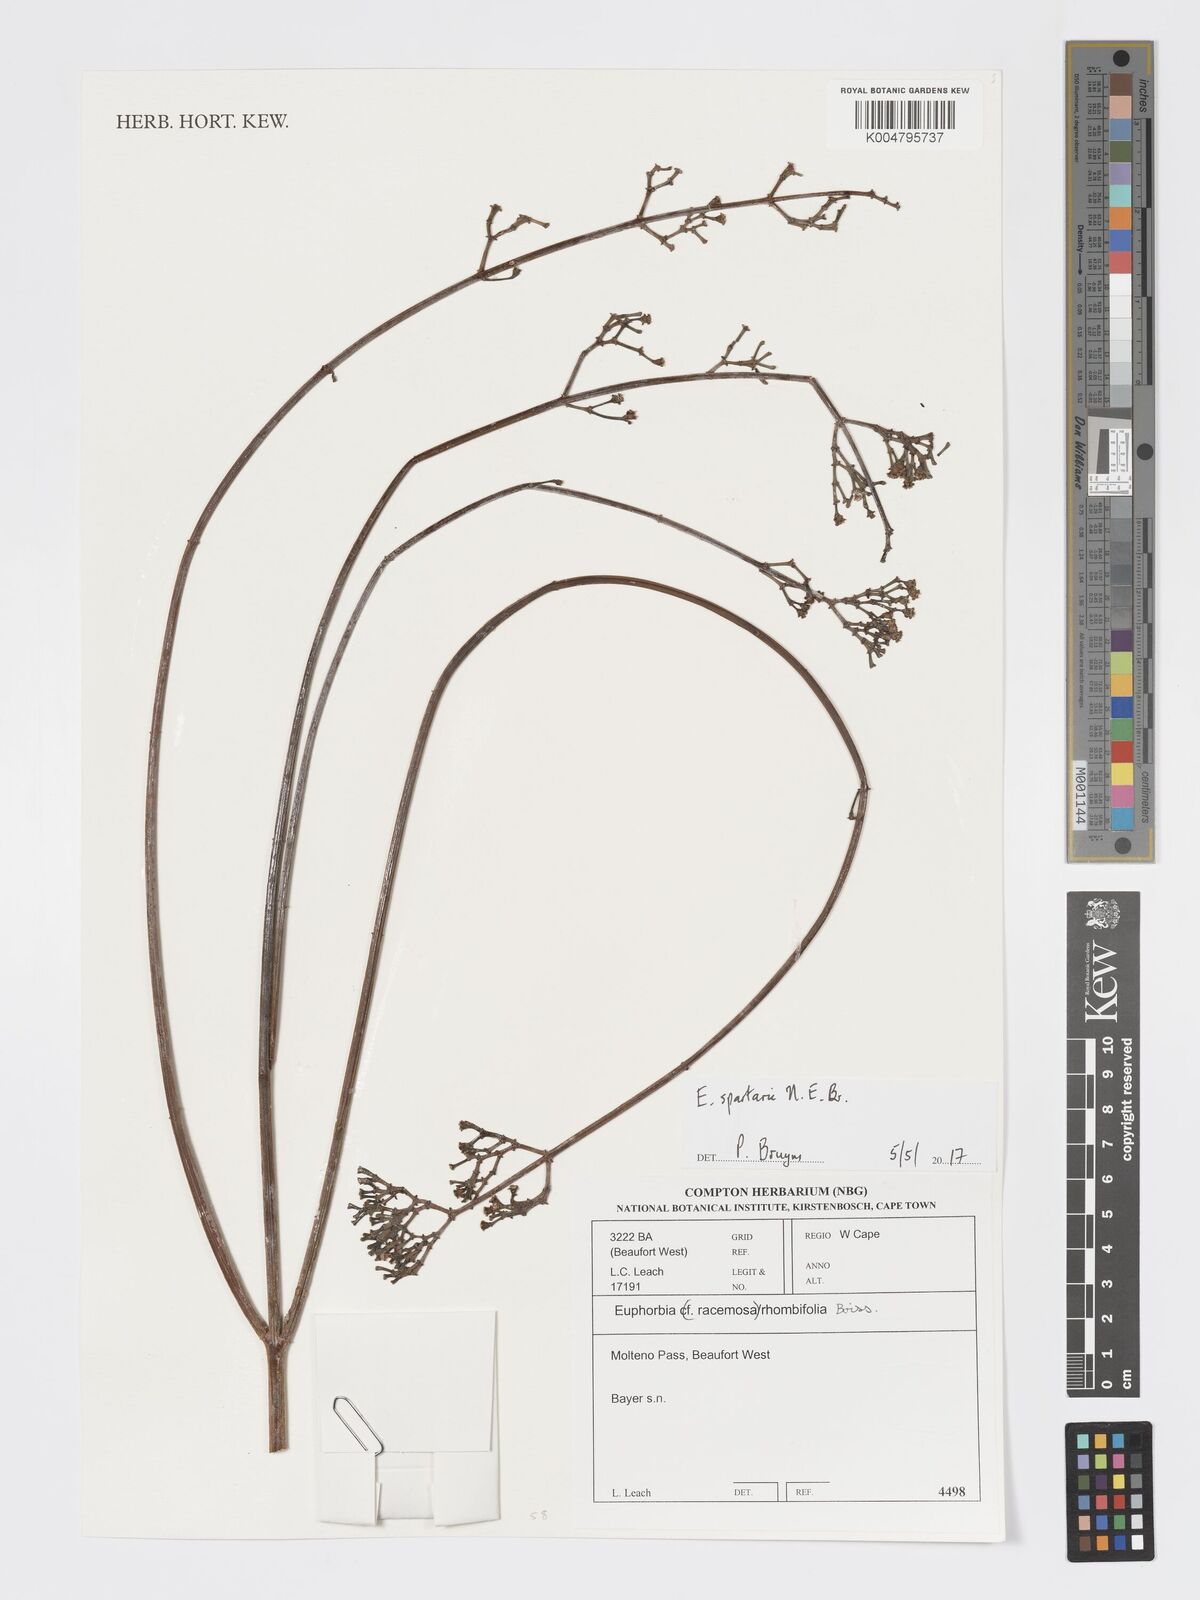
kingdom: Plantae
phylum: Tracheophyta
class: Magnoliopsida
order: Malpighiales
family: Euphorbiaceae
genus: Euphorbia
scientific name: Euphorbia spartaria
